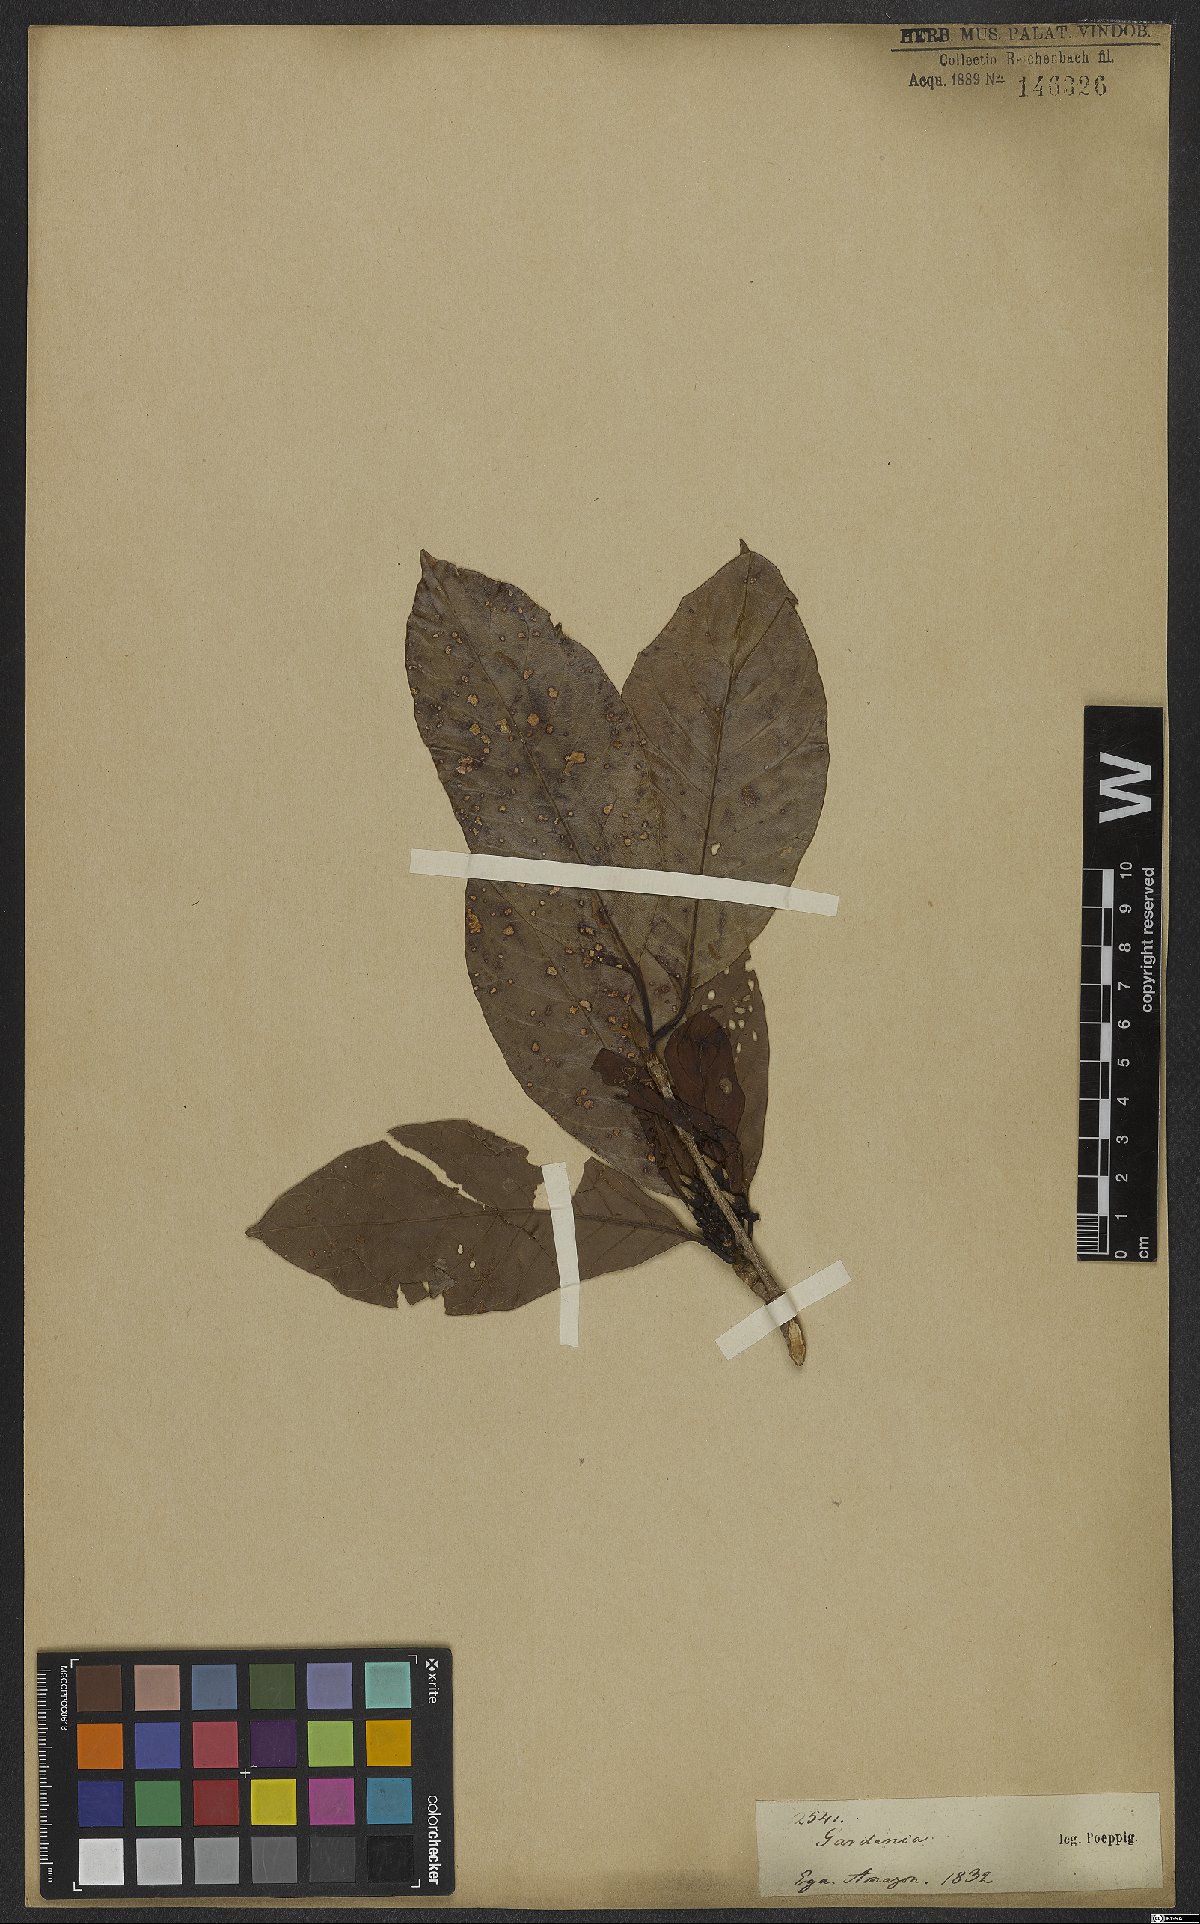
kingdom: Plantae
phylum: Tracheophyta
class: Magnoliopsida
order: Gentianales
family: Rubiaceae
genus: Gardenia
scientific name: Gardenia
